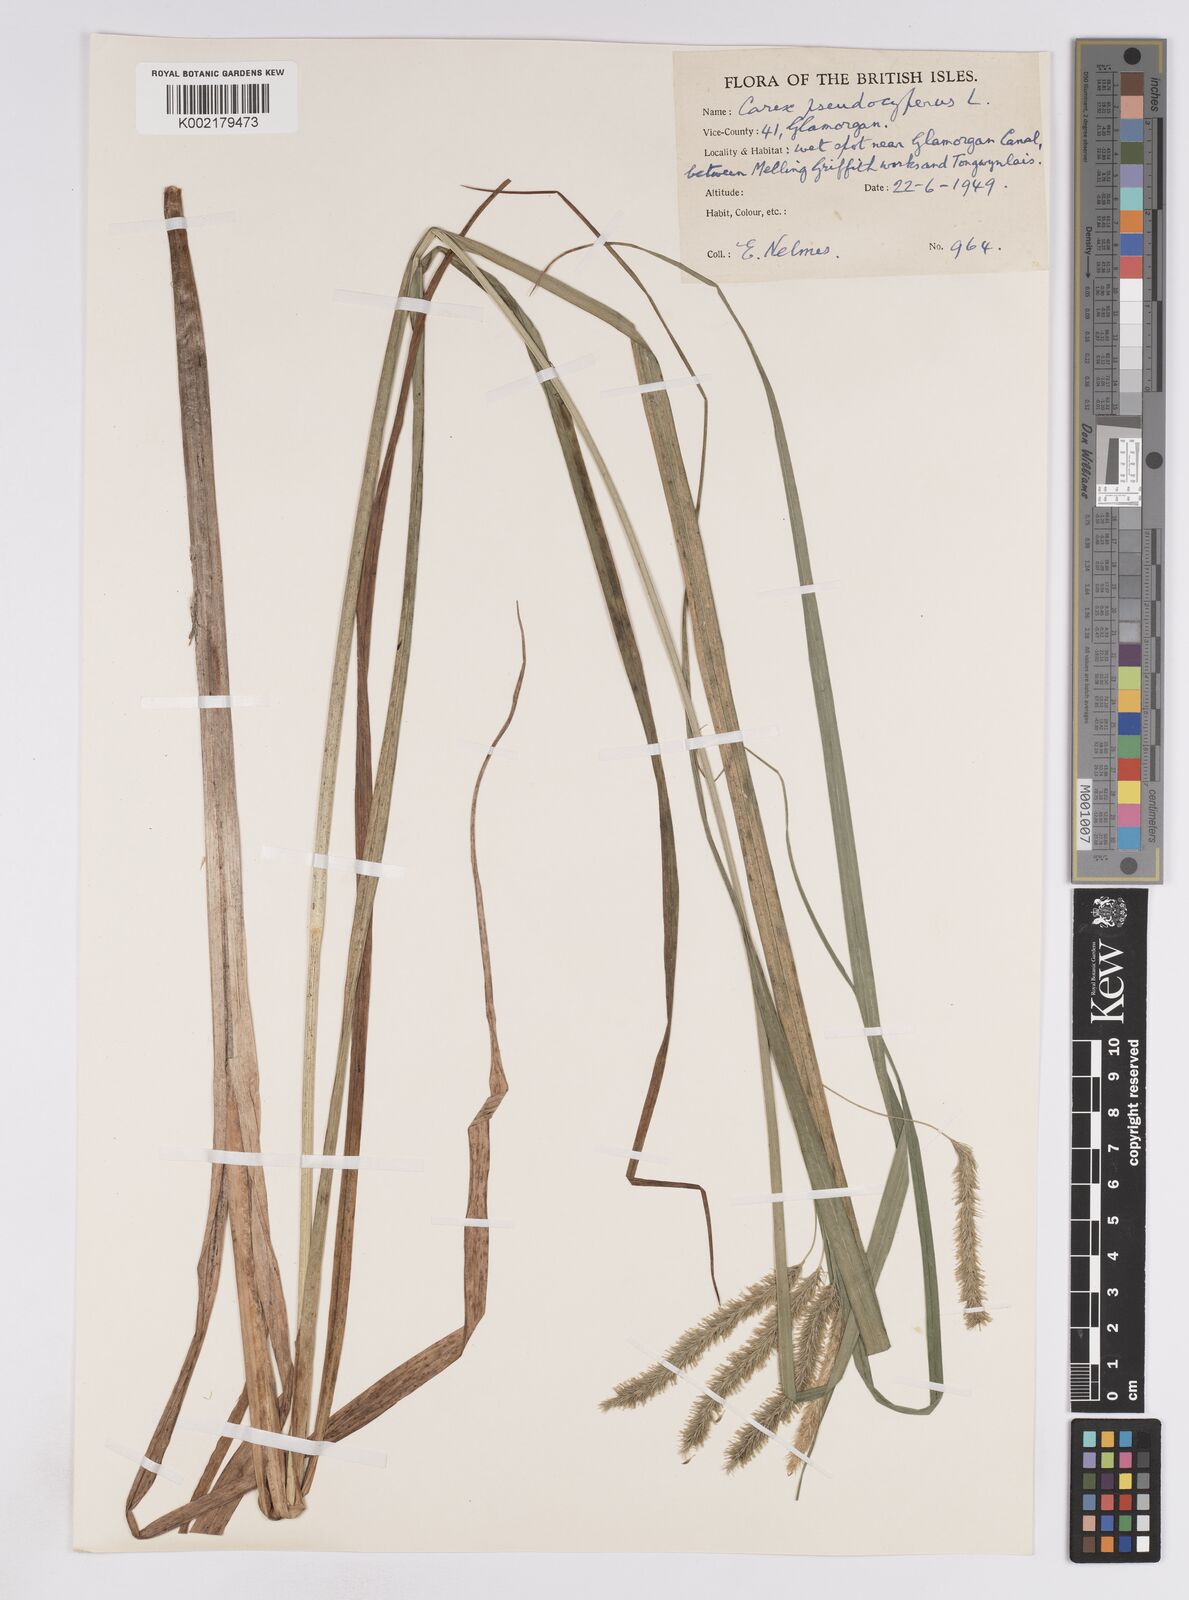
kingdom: Plantae
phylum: Tracheophyta
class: Liliopsida
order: Poales
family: Cyperaceae
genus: Carex
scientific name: Carex pseudocyperus
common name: Cyperus sedge
